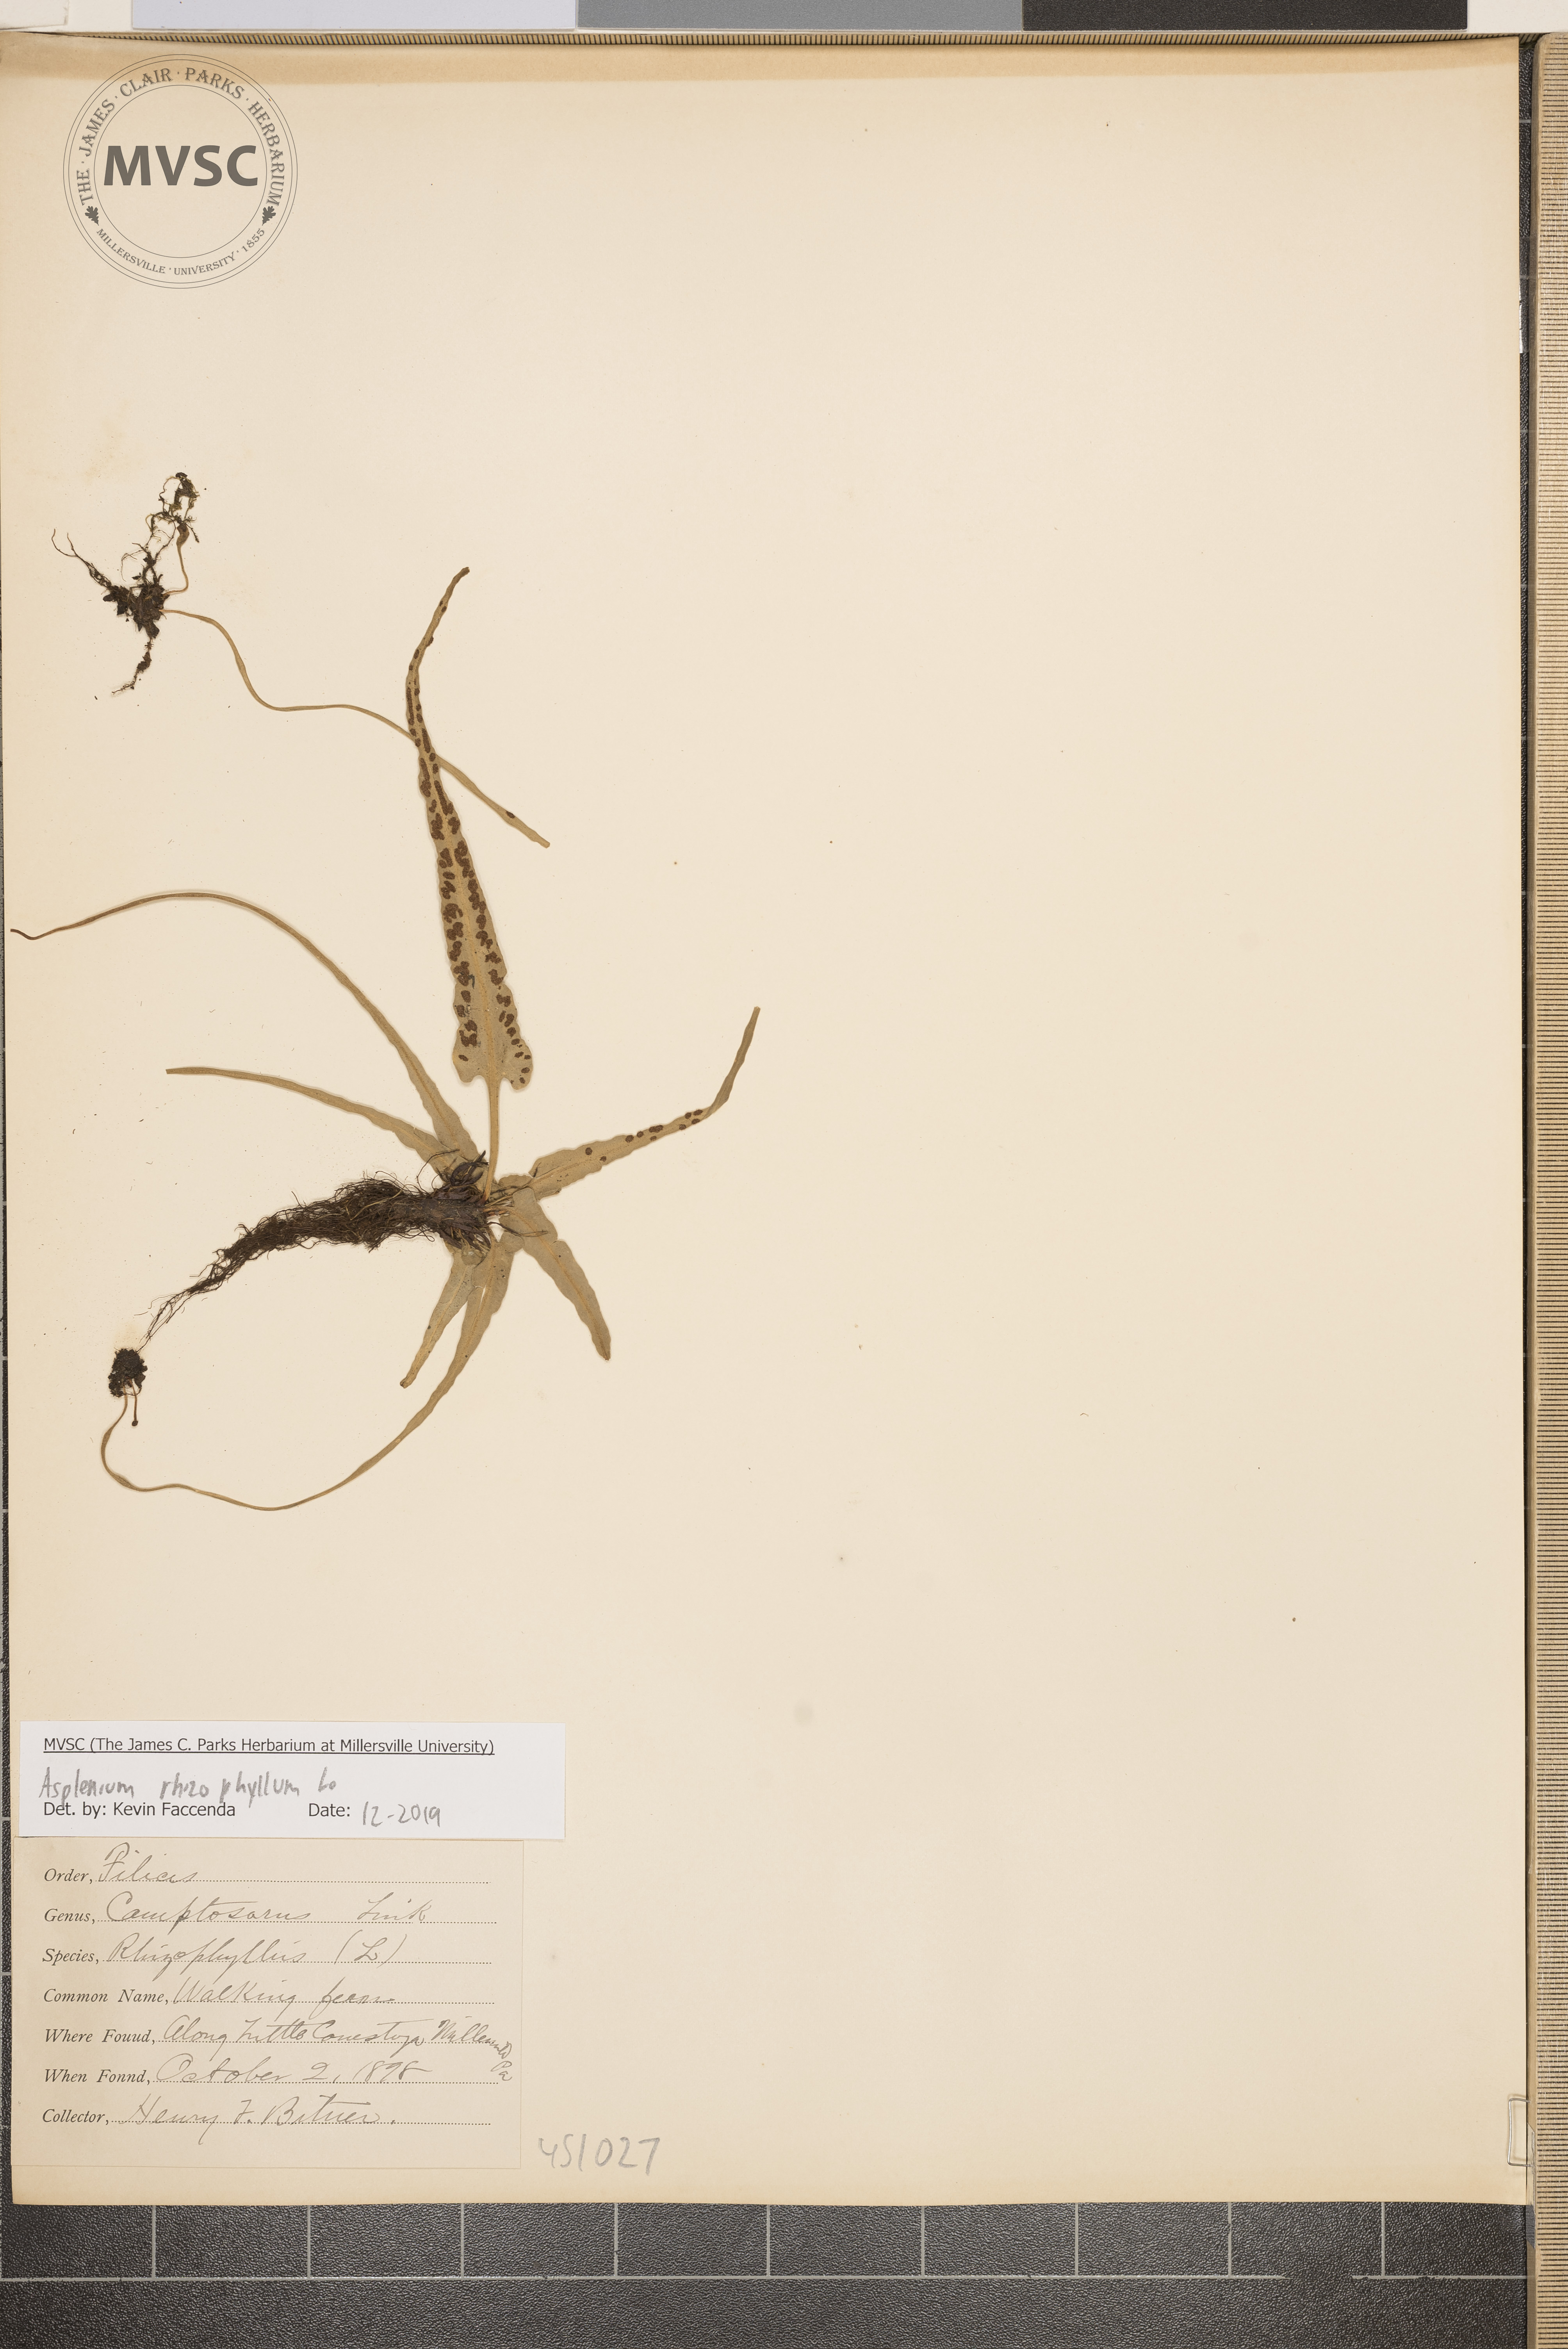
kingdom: Plantae
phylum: Tracheophyta
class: Polypodiopsida
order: Polypodiales
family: Aspleniaceae
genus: Asplenium
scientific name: Asplenium rhizophyllum
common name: Walking Fern
